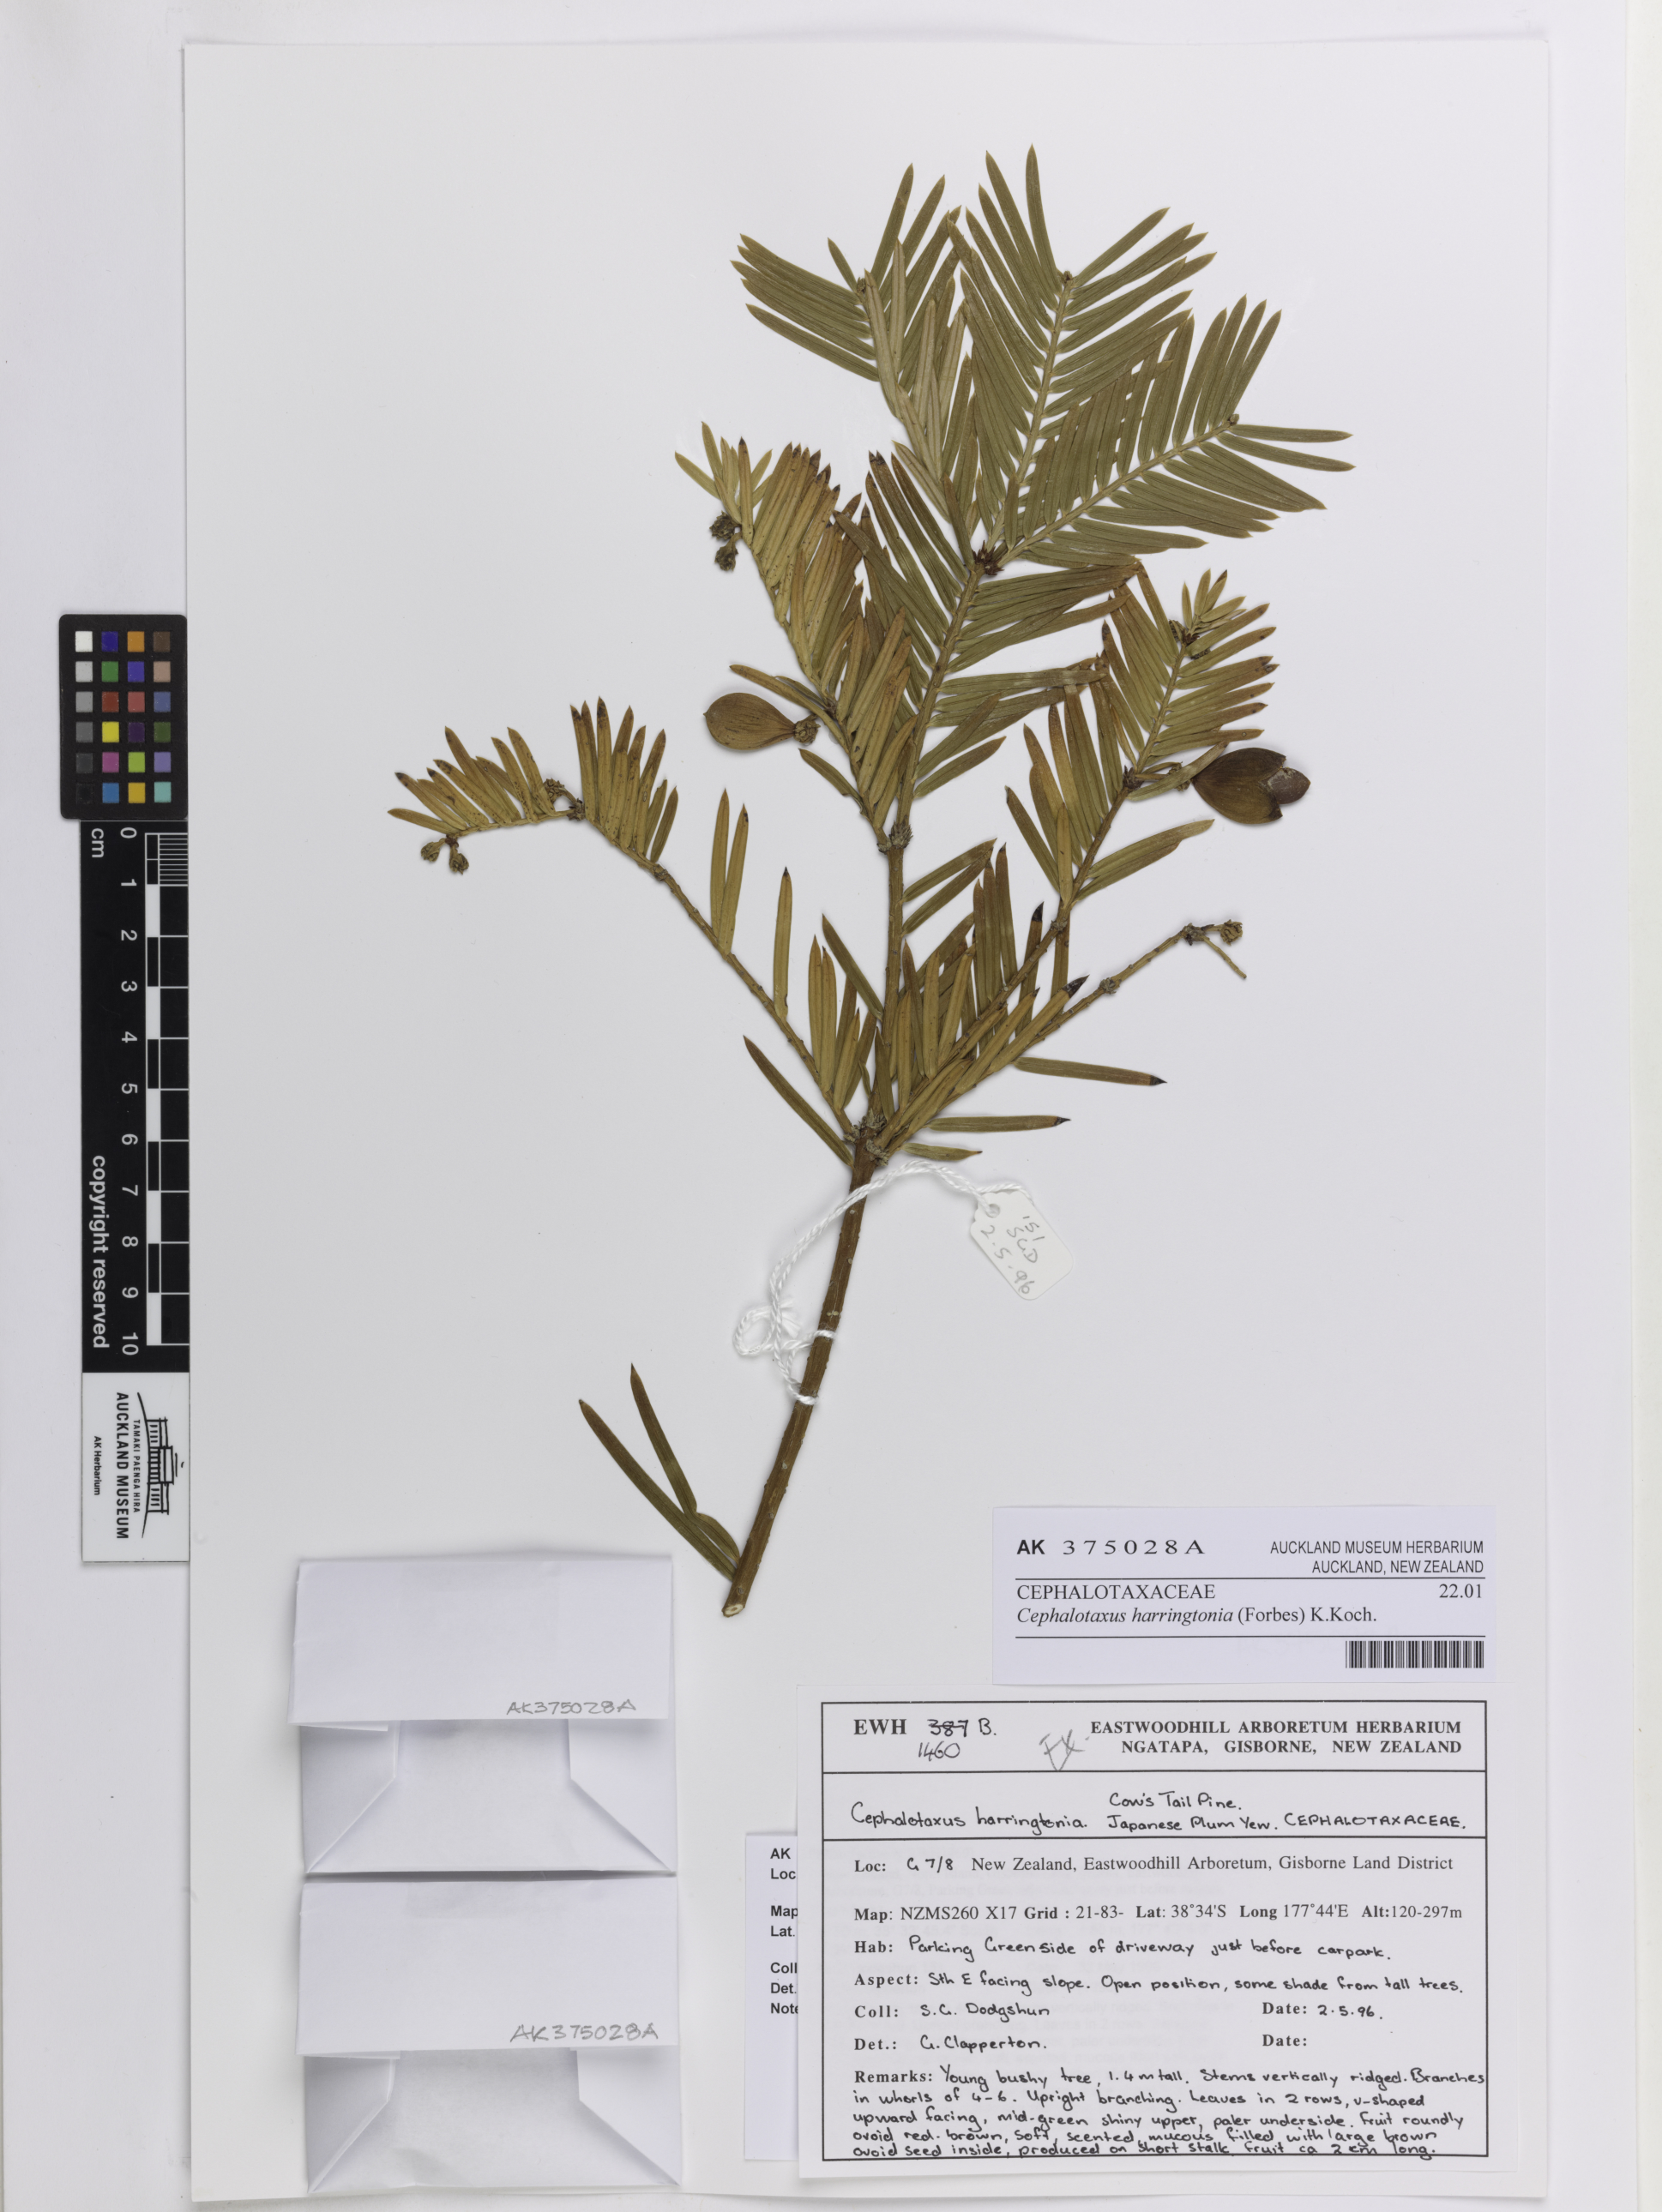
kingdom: Plantae
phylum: Tracheophyta
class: Pinopsida
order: Pinales
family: Cephalotaxaceae
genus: Cephalotaxus
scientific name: Cephalotaxus harringtonia
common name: Japanese plum-yew
